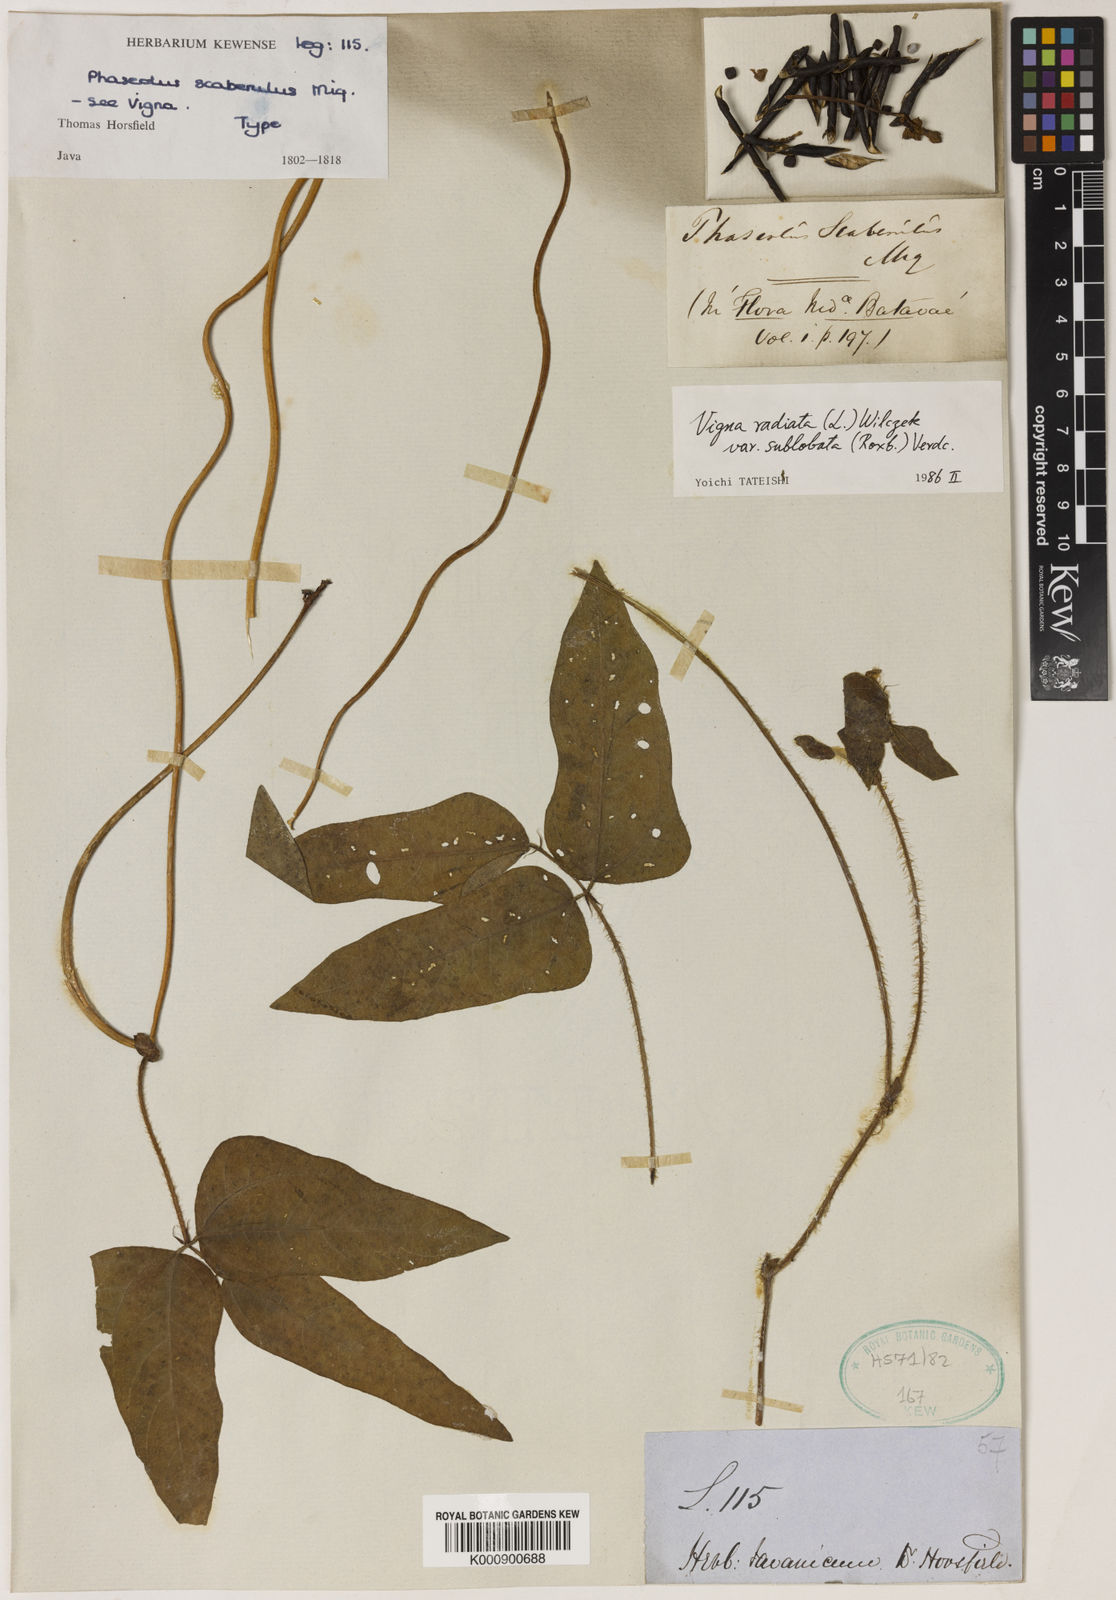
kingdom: Plantae
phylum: Tracheophyta
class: Magnoliopsida
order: Fabales
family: Fabaceae
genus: Vigna
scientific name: Vigna radiata
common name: Mung-bean
